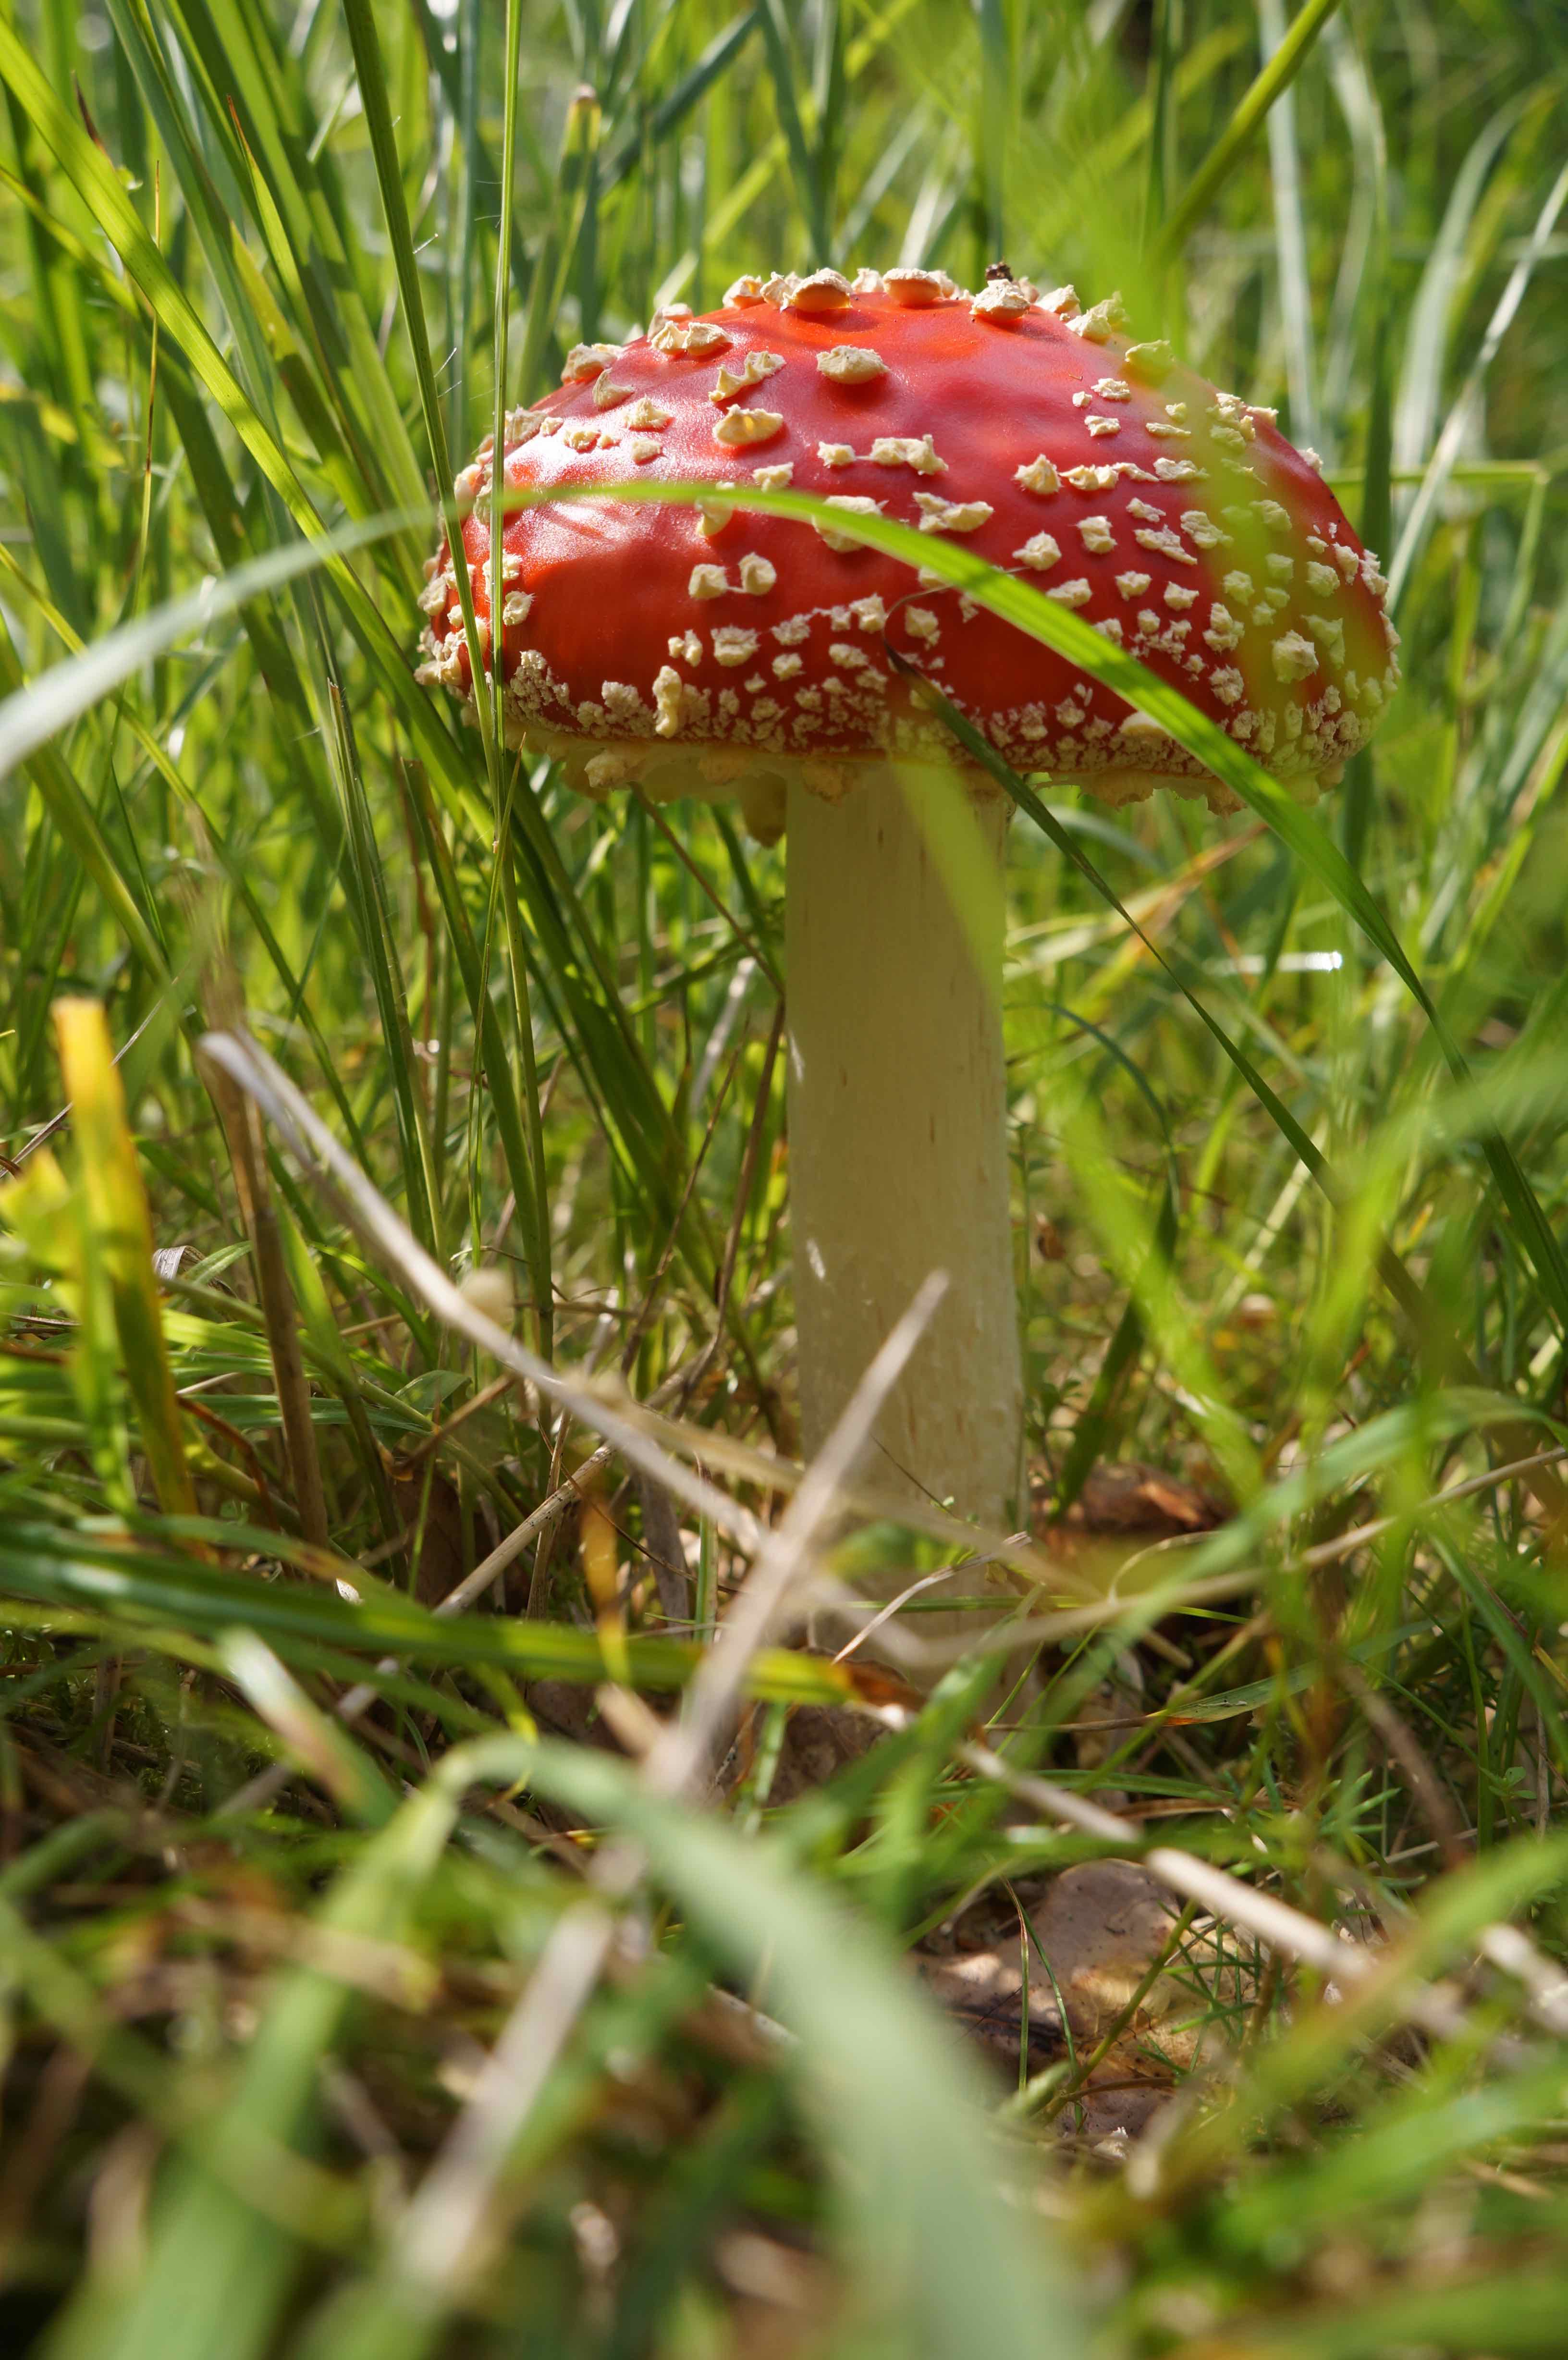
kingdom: Fungi
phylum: Basidiomycota
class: Agaricomycetes
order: Agaricales
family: Amanitaceae
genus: Amanita
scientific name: Amanita muscaria
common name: rød fluesvamp
